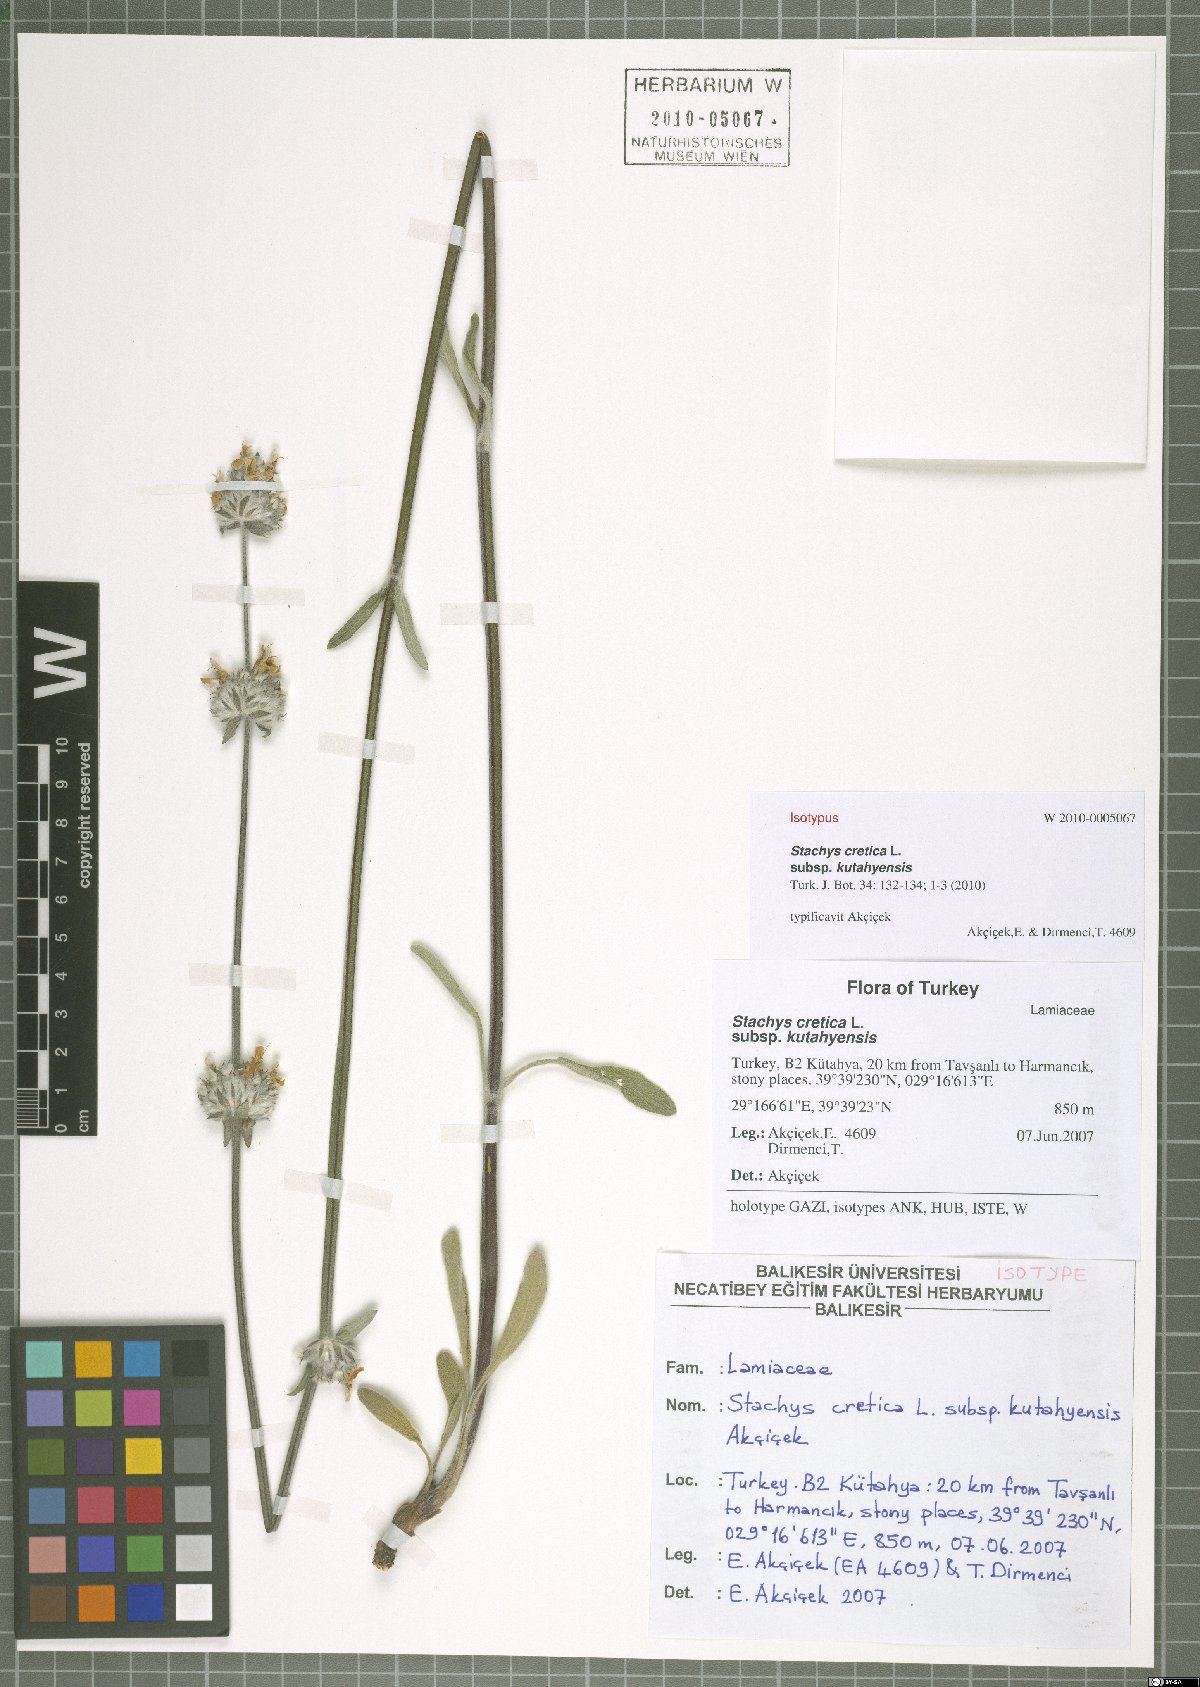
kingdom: Plantae
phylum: Tracheophyta
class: Magnoliopsida
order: Lamiales
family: Lamiaceae
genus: Stachys
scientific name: Stachys cretica
